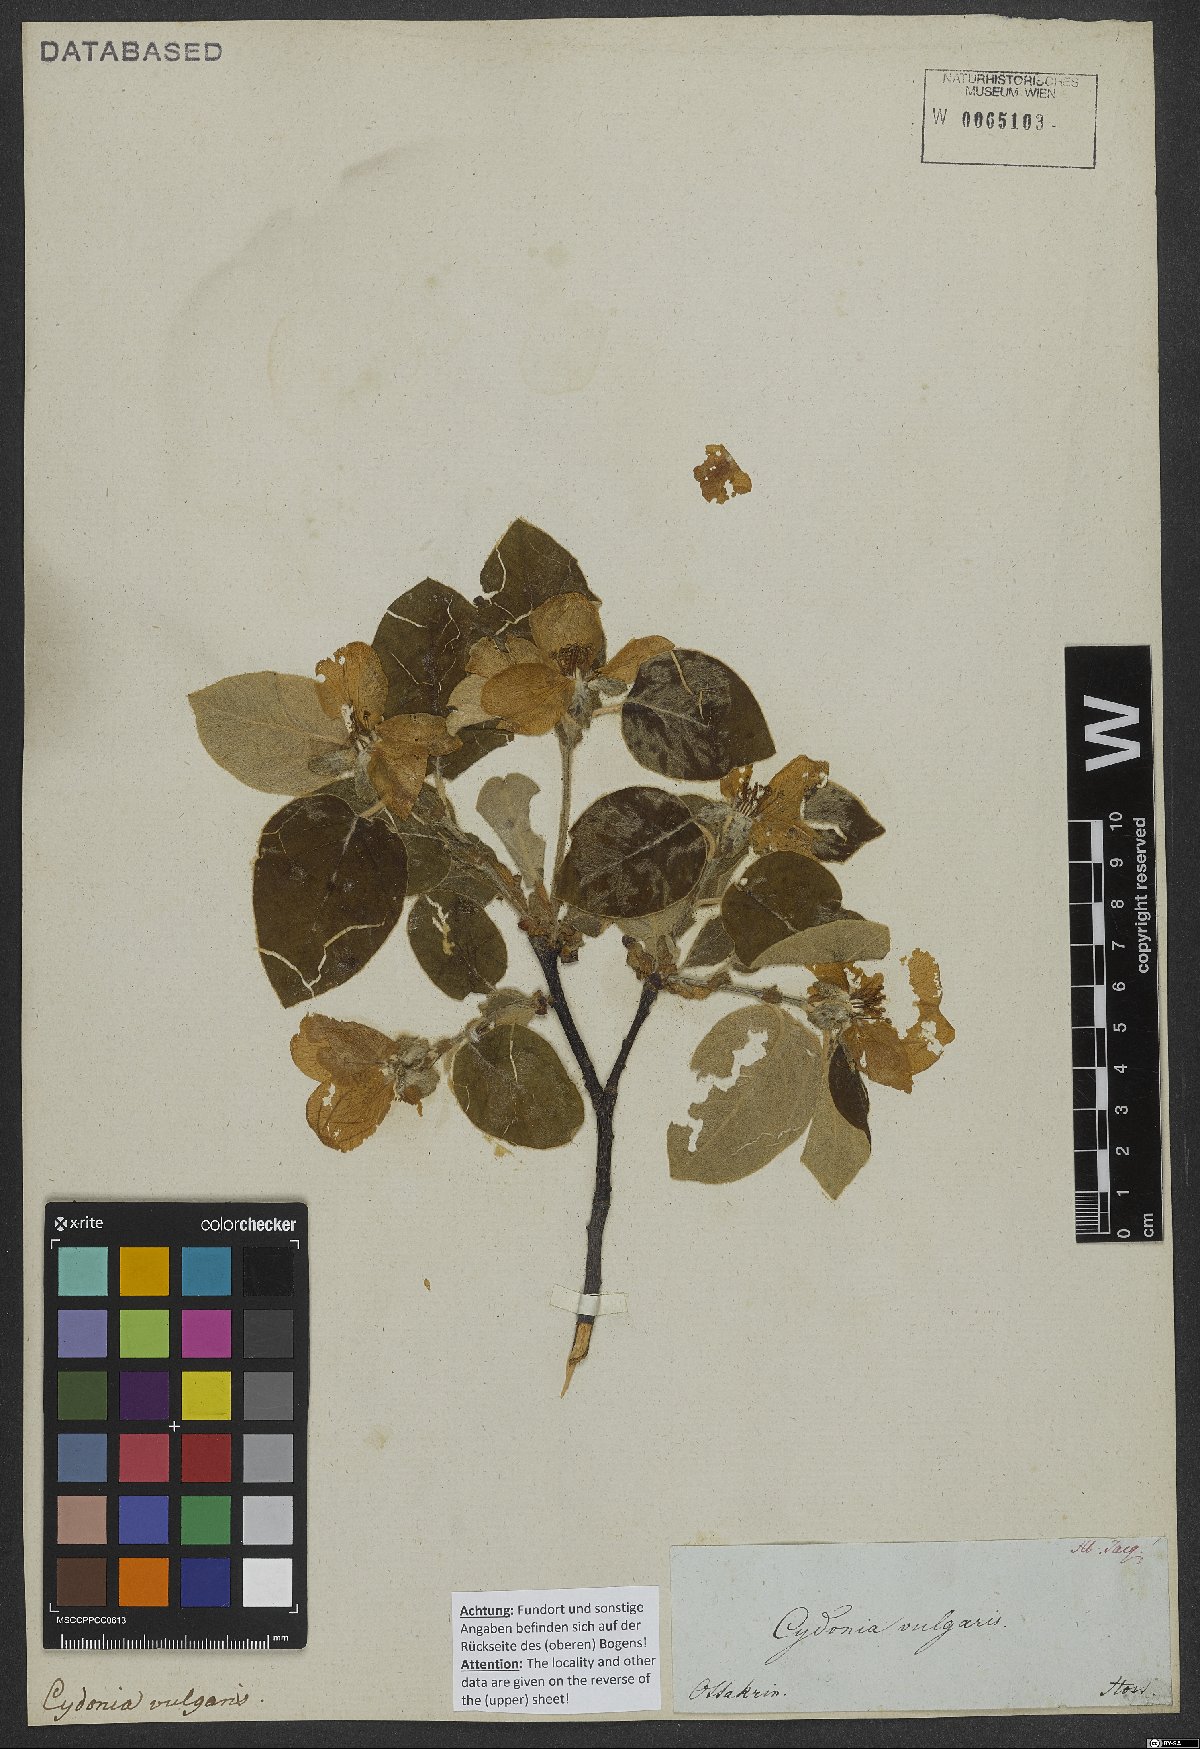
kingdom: Plantae
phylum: Tracheophyta
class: Magnoliopsida
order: Rosales
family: Rosaceae
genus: Cydonia
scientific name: Cydonia oblonga
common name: Quince
